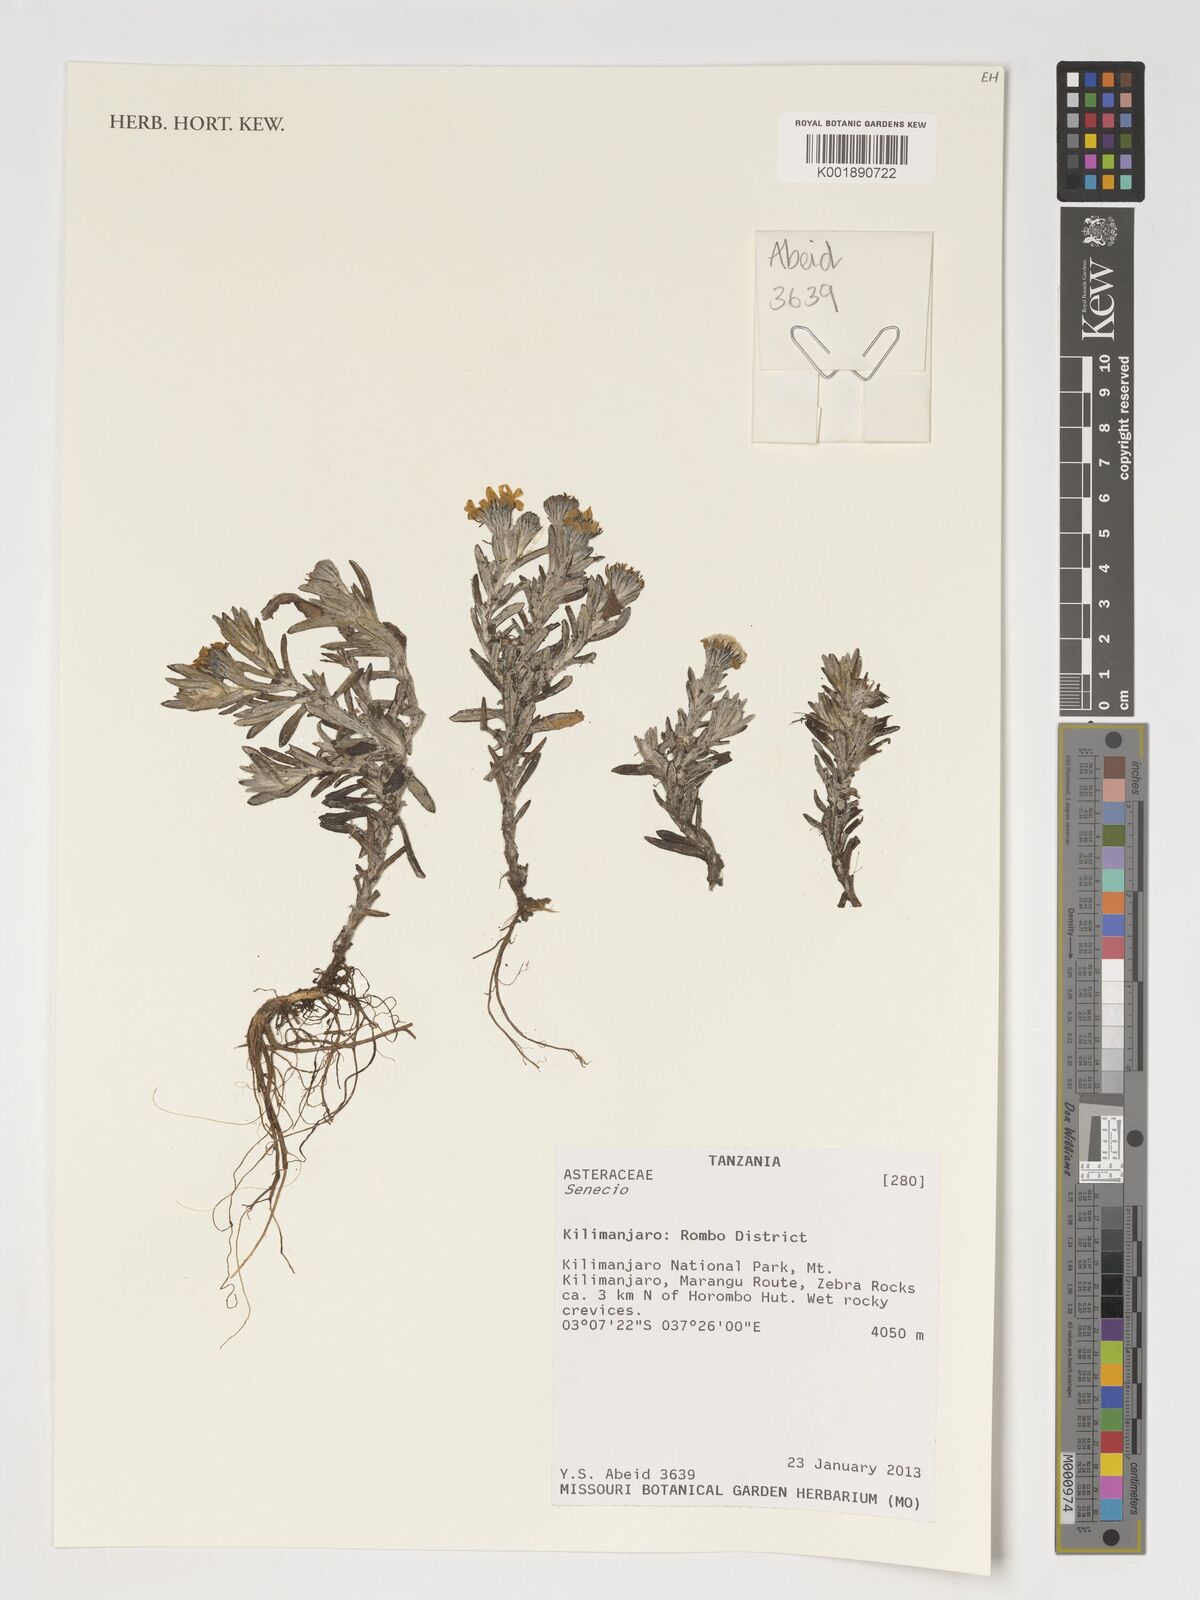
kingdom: Plantae
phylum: Tracheophyta
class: Magnoliopsida
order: Asterales
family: Asteraceae
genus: Senecio
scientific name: Senecio
